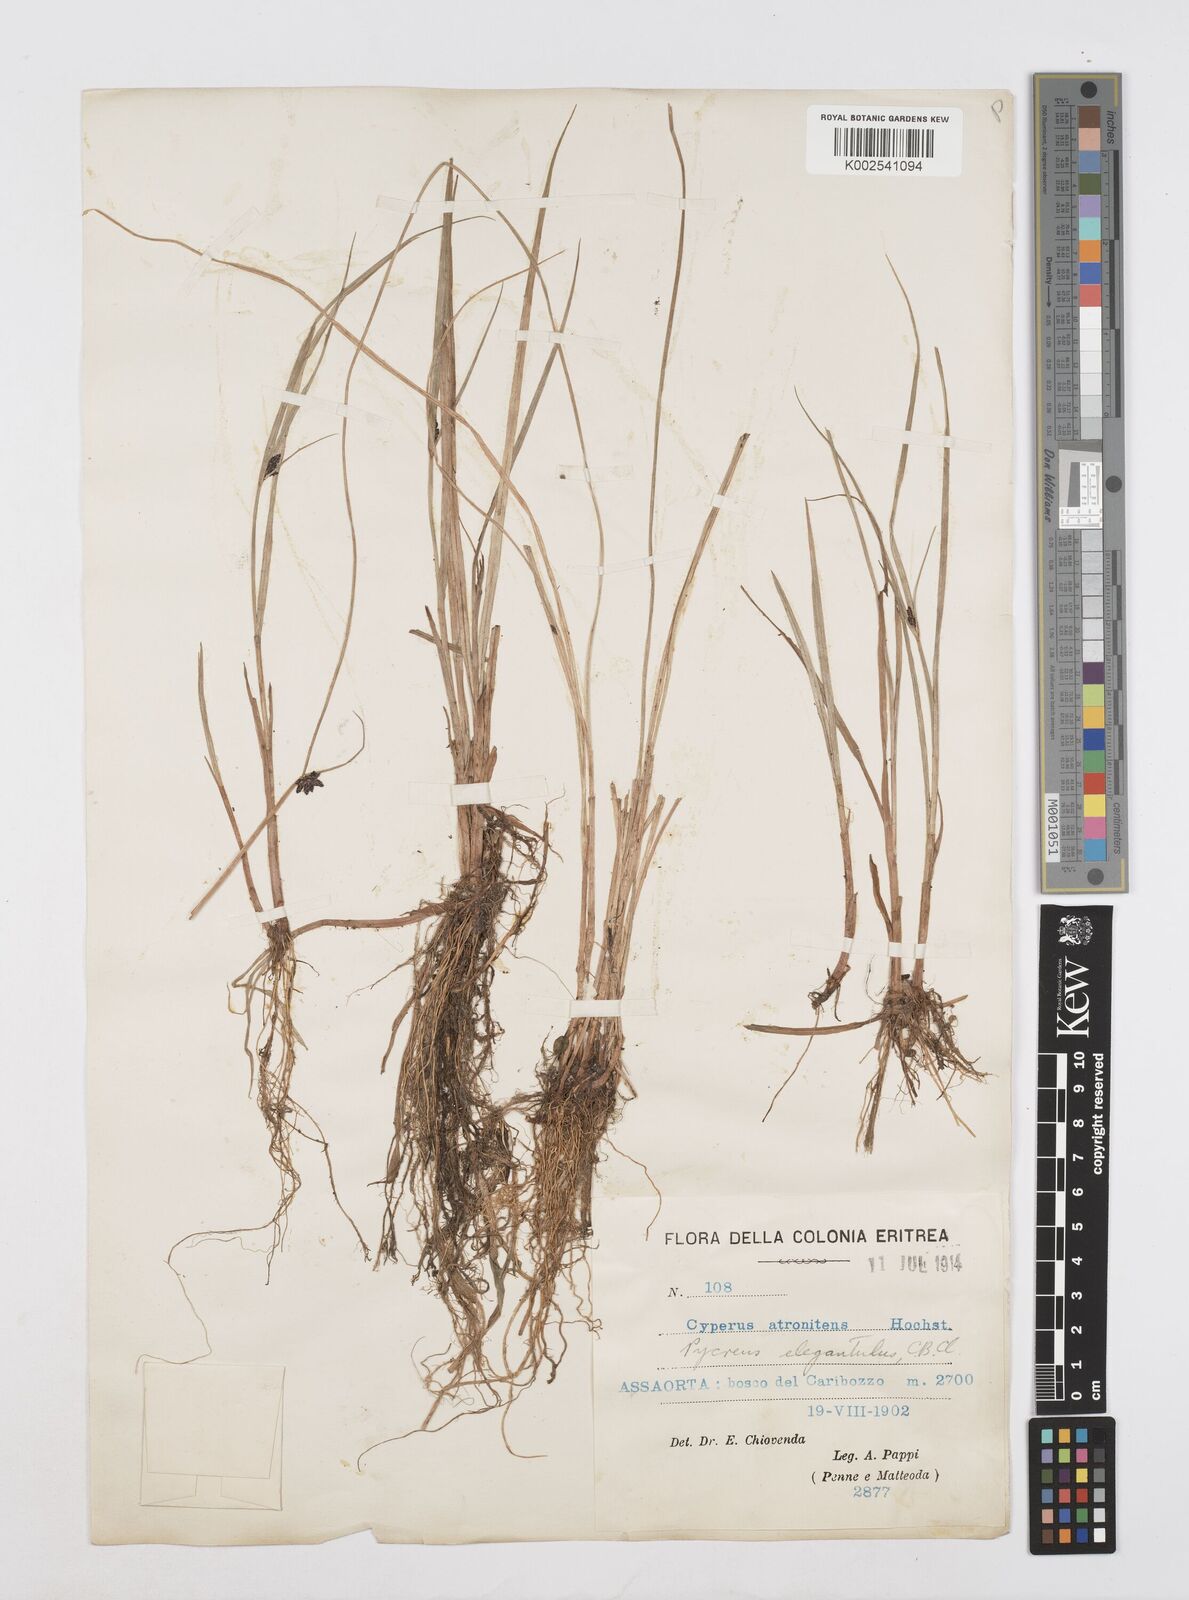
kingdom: Plantae
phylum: Tracheophyta
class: Liliopsida
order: Poales
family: Cyperaceae
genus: Cyperus
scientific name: Cyperus elegantulus
